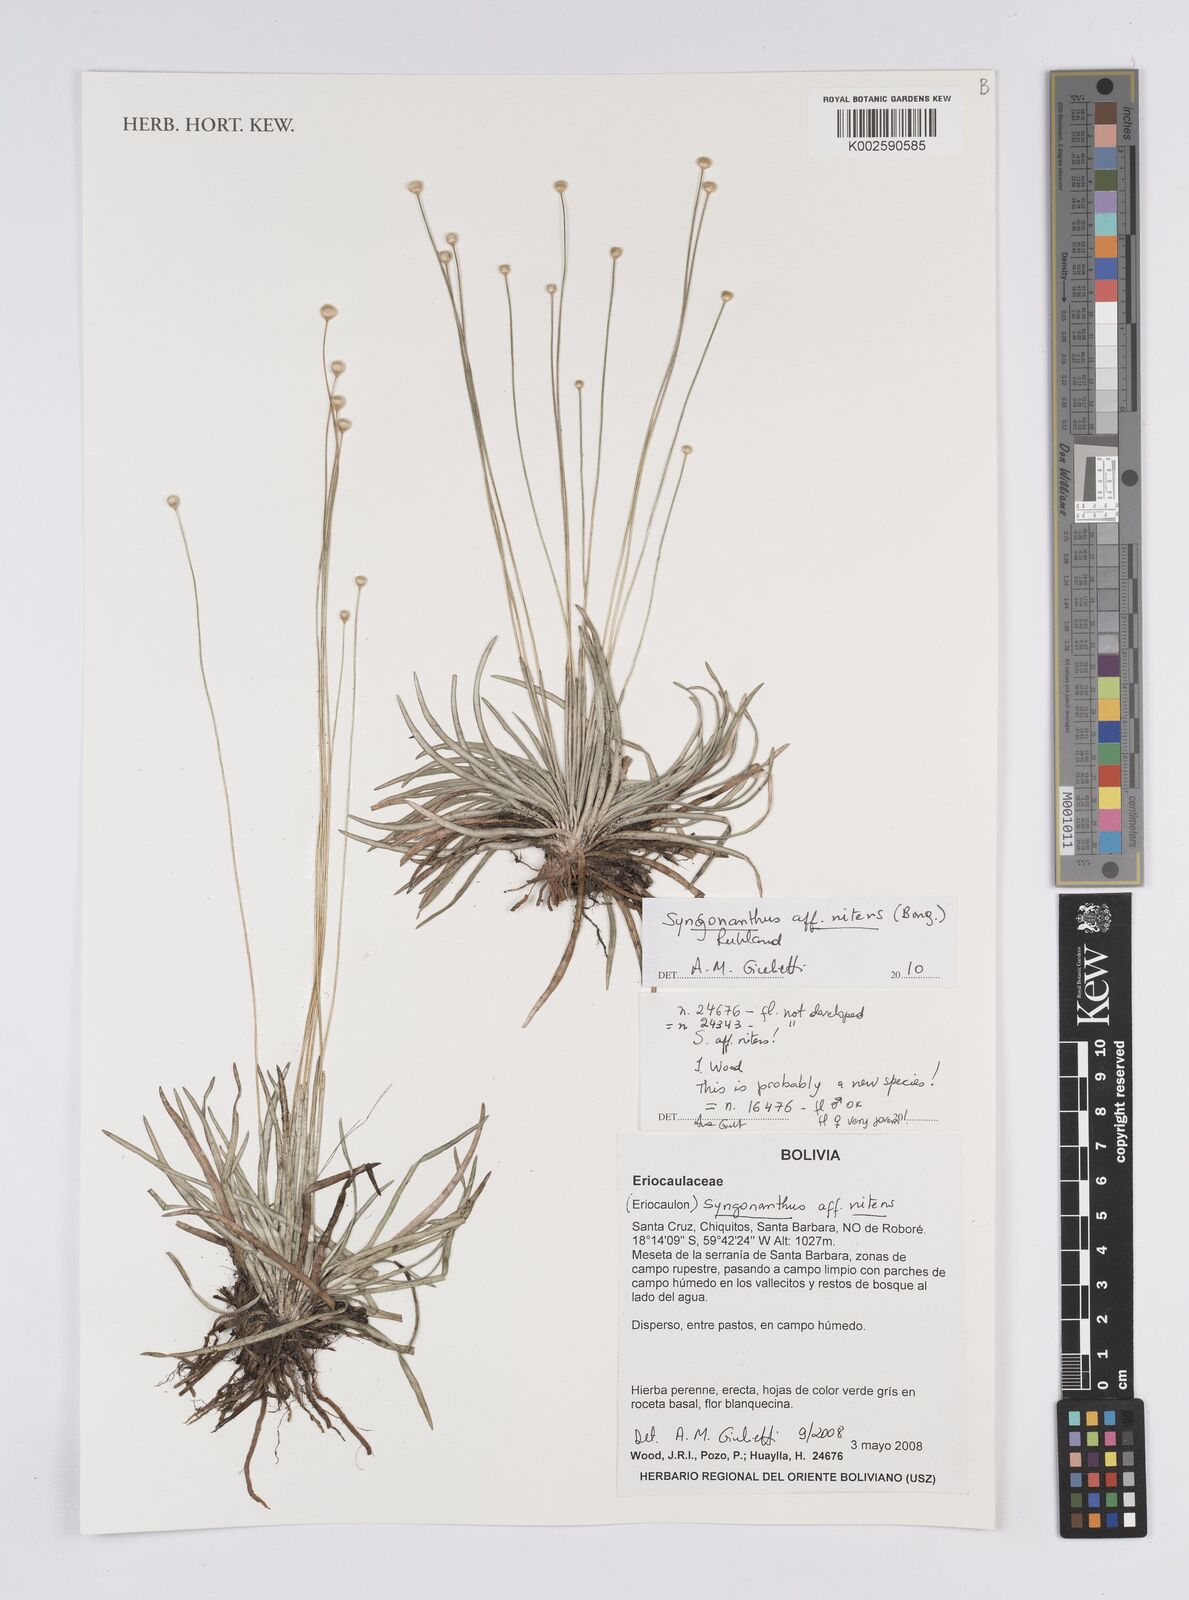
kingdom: Plantae
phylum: Tracheophyta
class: Liliopsida
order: Poales
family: Eriocaulaceae
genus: Syngonanthus
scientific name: Syngonanthus nitens
